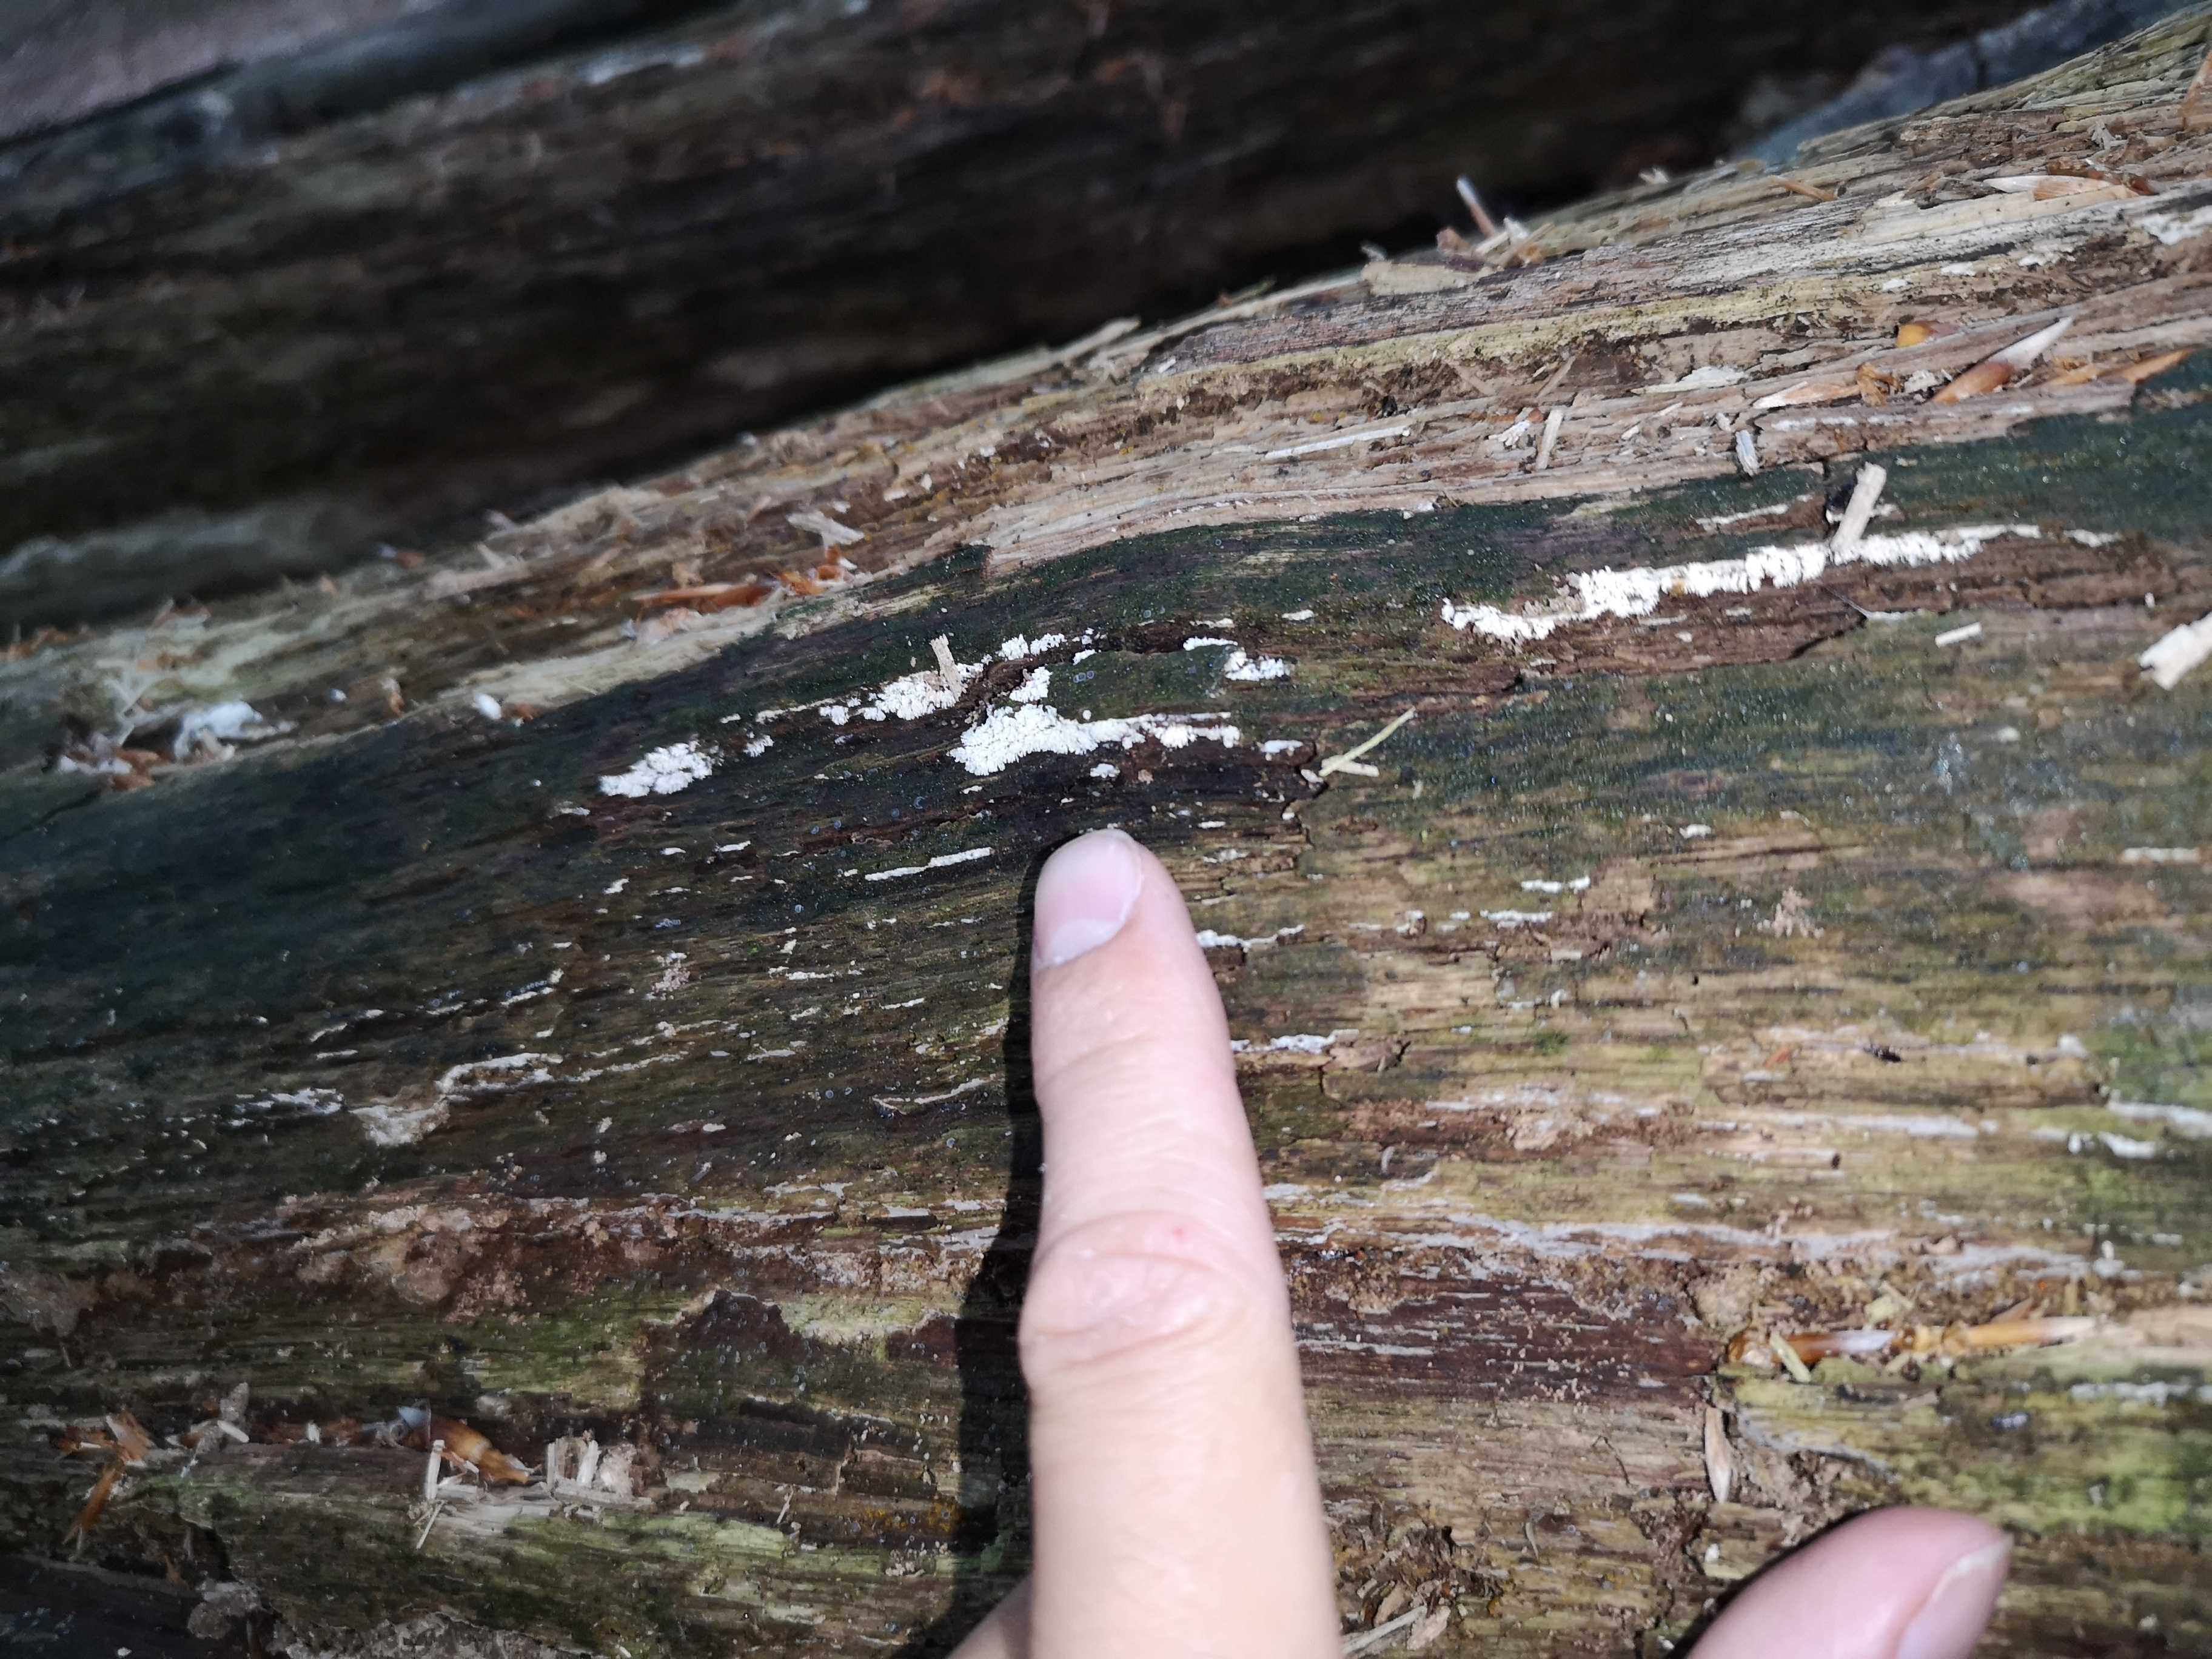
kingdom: Protozoa
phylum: Mycetozoa
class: Protosteliomycetes
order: Ceratiomyxales
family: Ceratiomyxaceae
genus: Ceratiomyxa
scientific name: Ceratiomyxa fruticulosa
